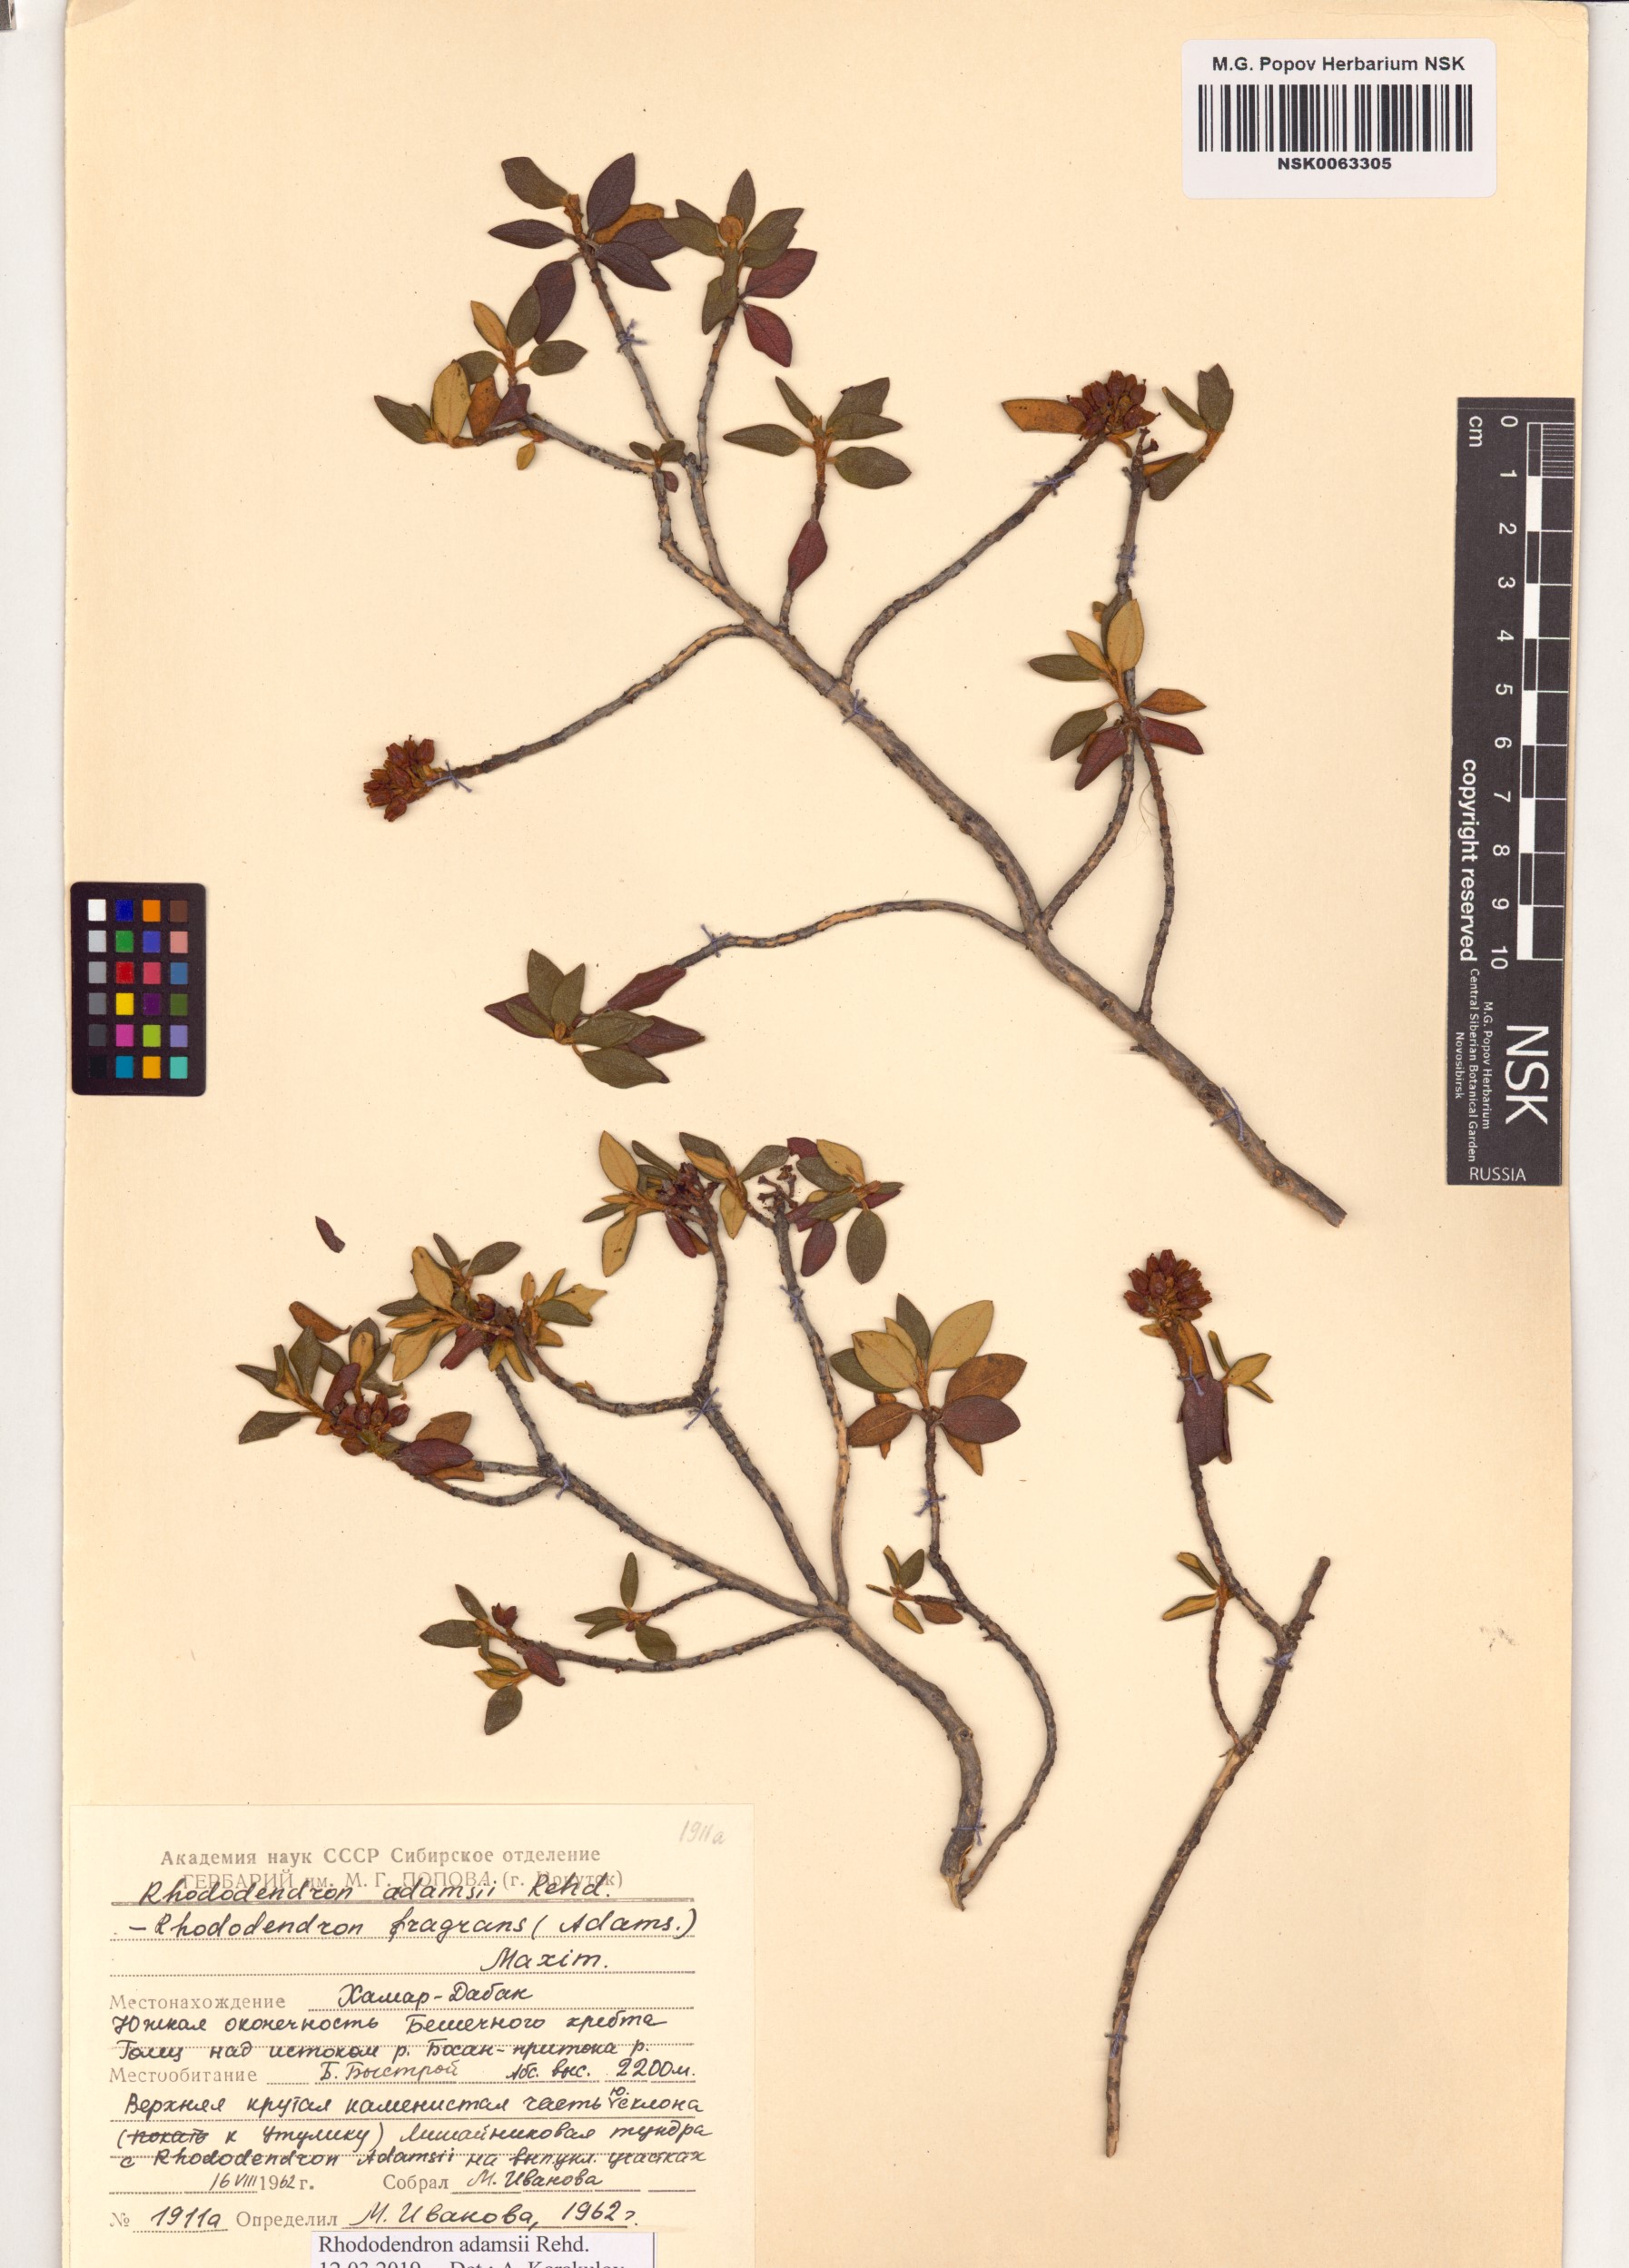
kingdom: Plantae
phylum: Tracheophyta
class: Magnoliopsida
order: Ericales
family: Ericaceae
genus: Rhododendron
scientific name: Rhododendron adamsii
